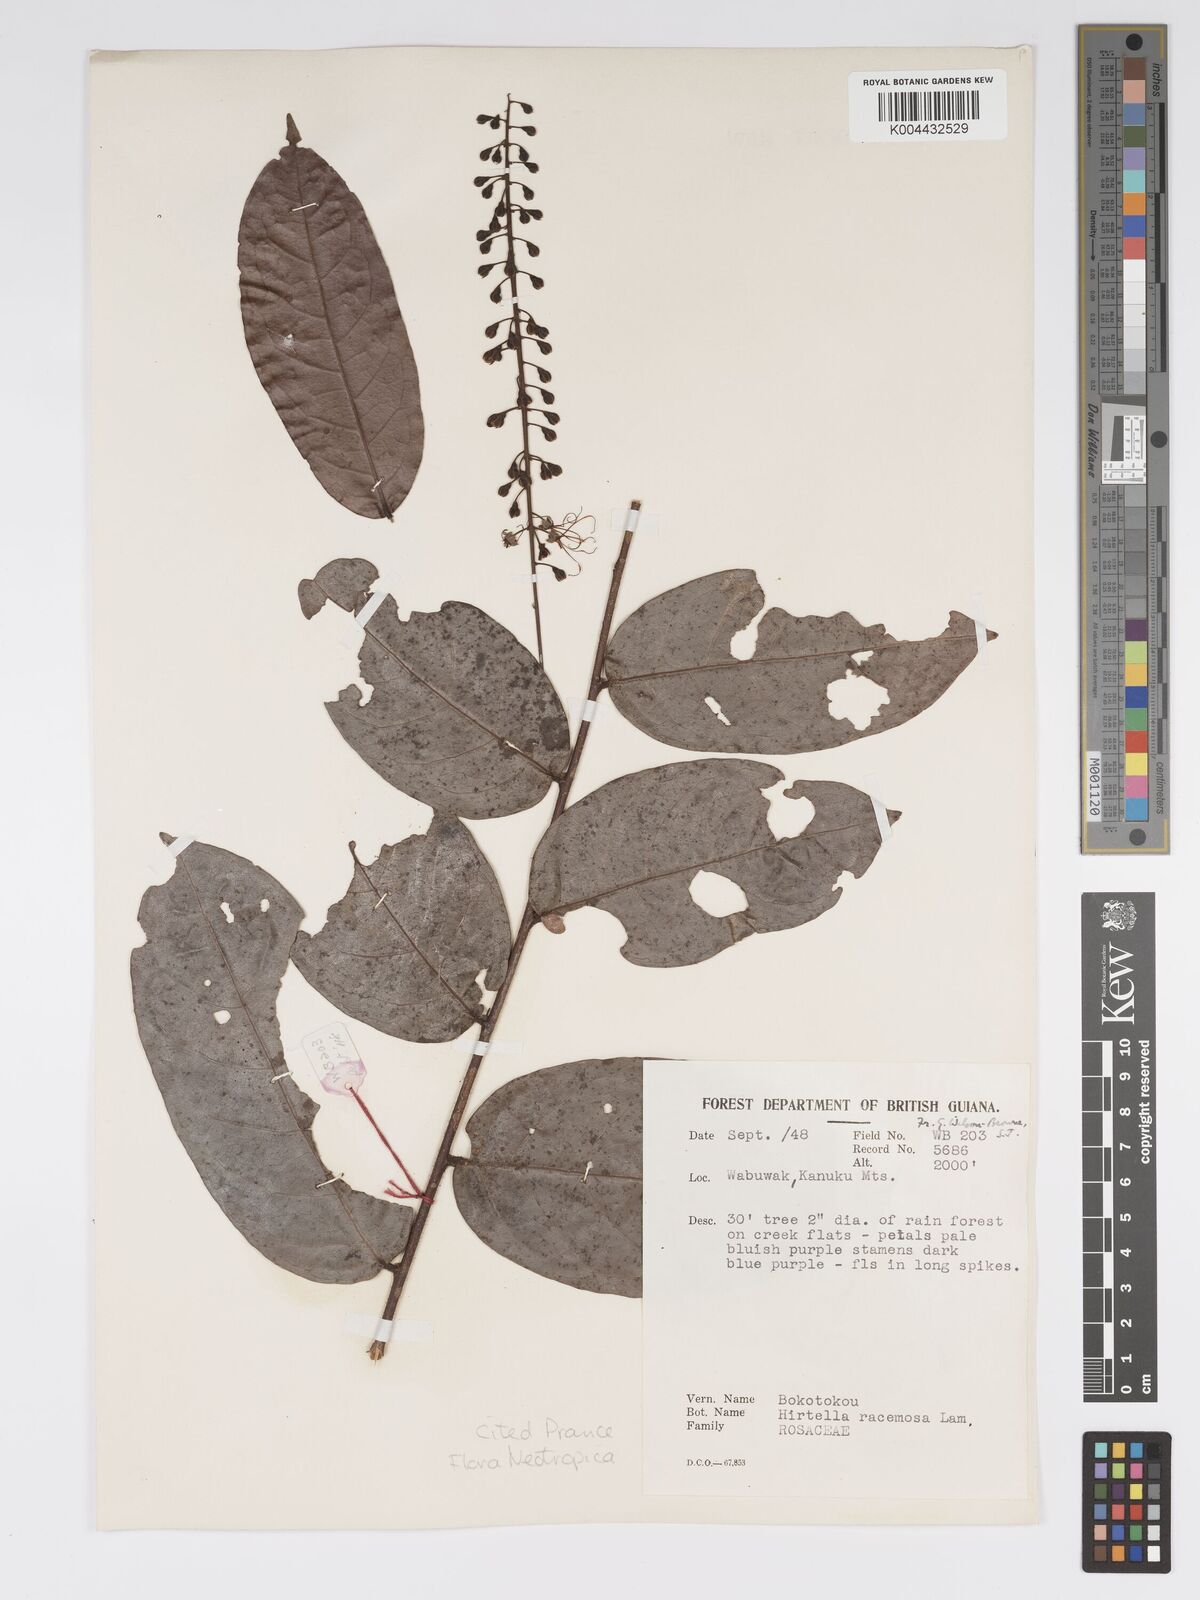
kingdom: Plantae
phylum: Tracheophyta
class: Magnoliopsida
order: Malpighiales
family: Chrysobalanaceae
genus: Hirtella
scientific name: Hirtella
